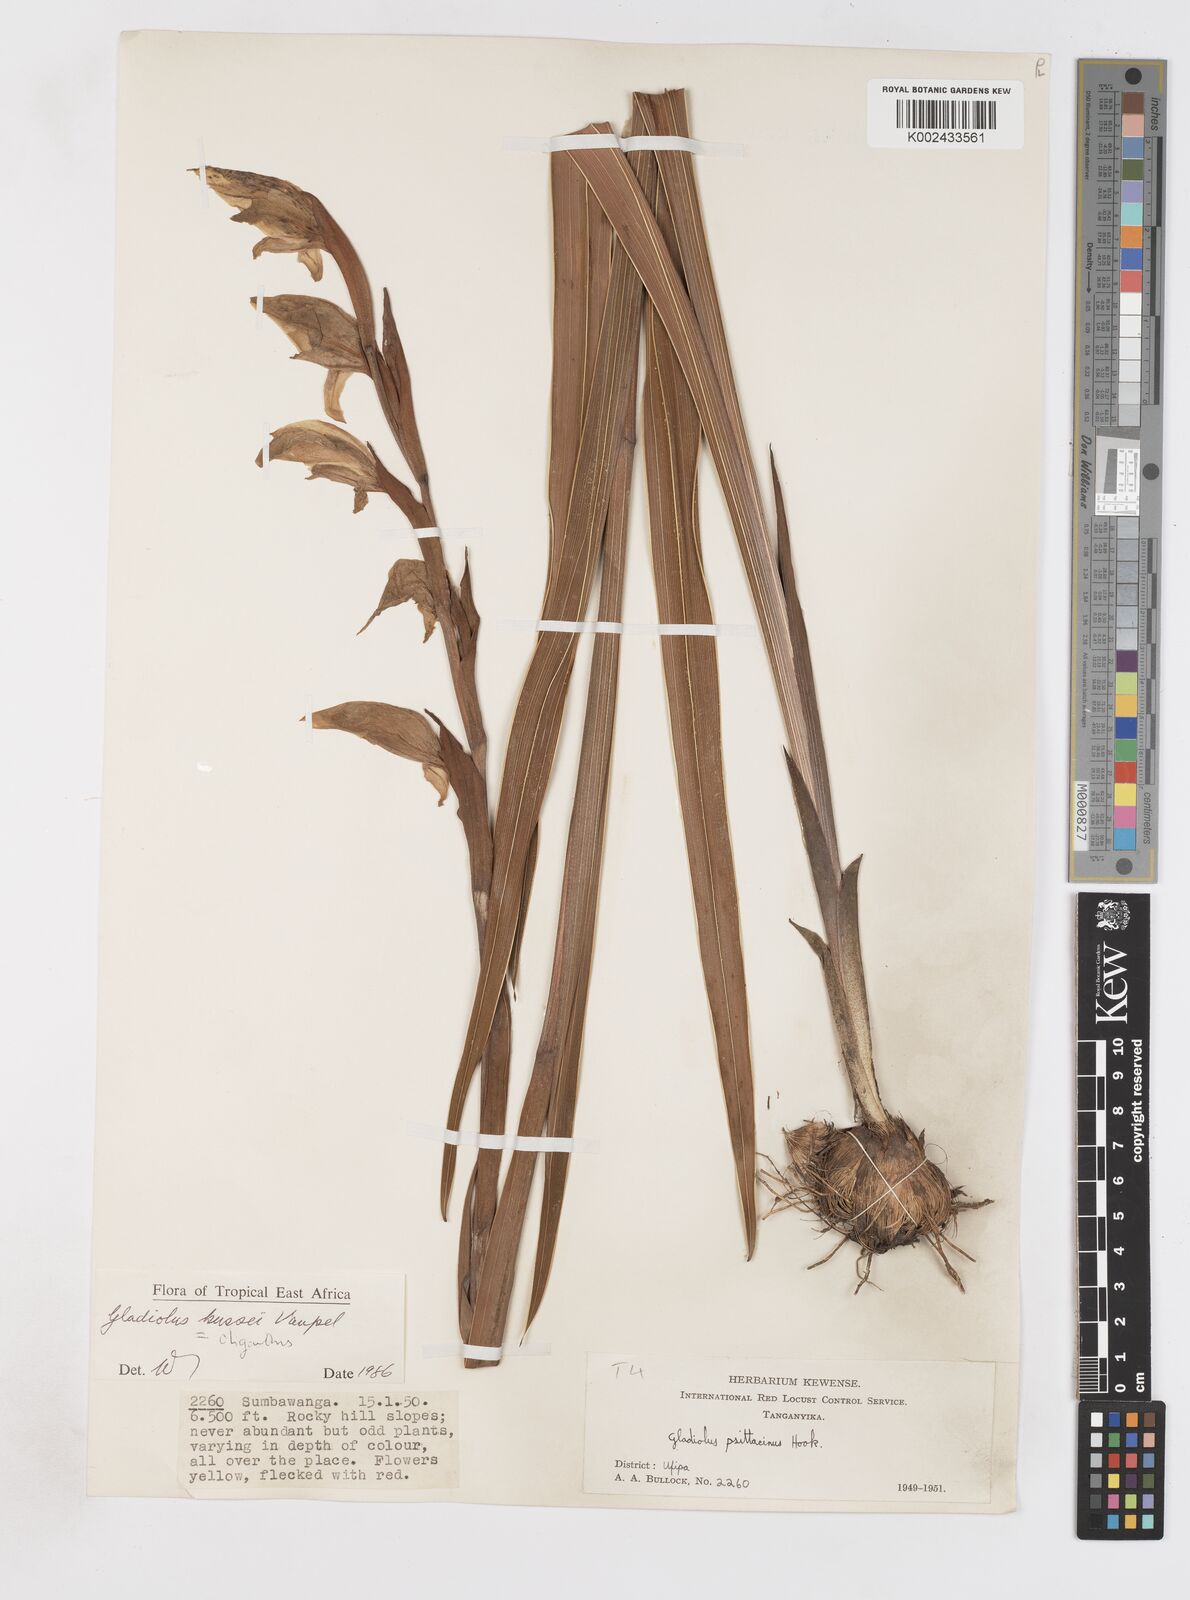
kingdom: Plantae
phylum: Tracheophyta
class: Liliopsida
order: Asparagales
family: Iridaceae
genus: Gladiolus
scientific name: Gladiolus oliganthus
